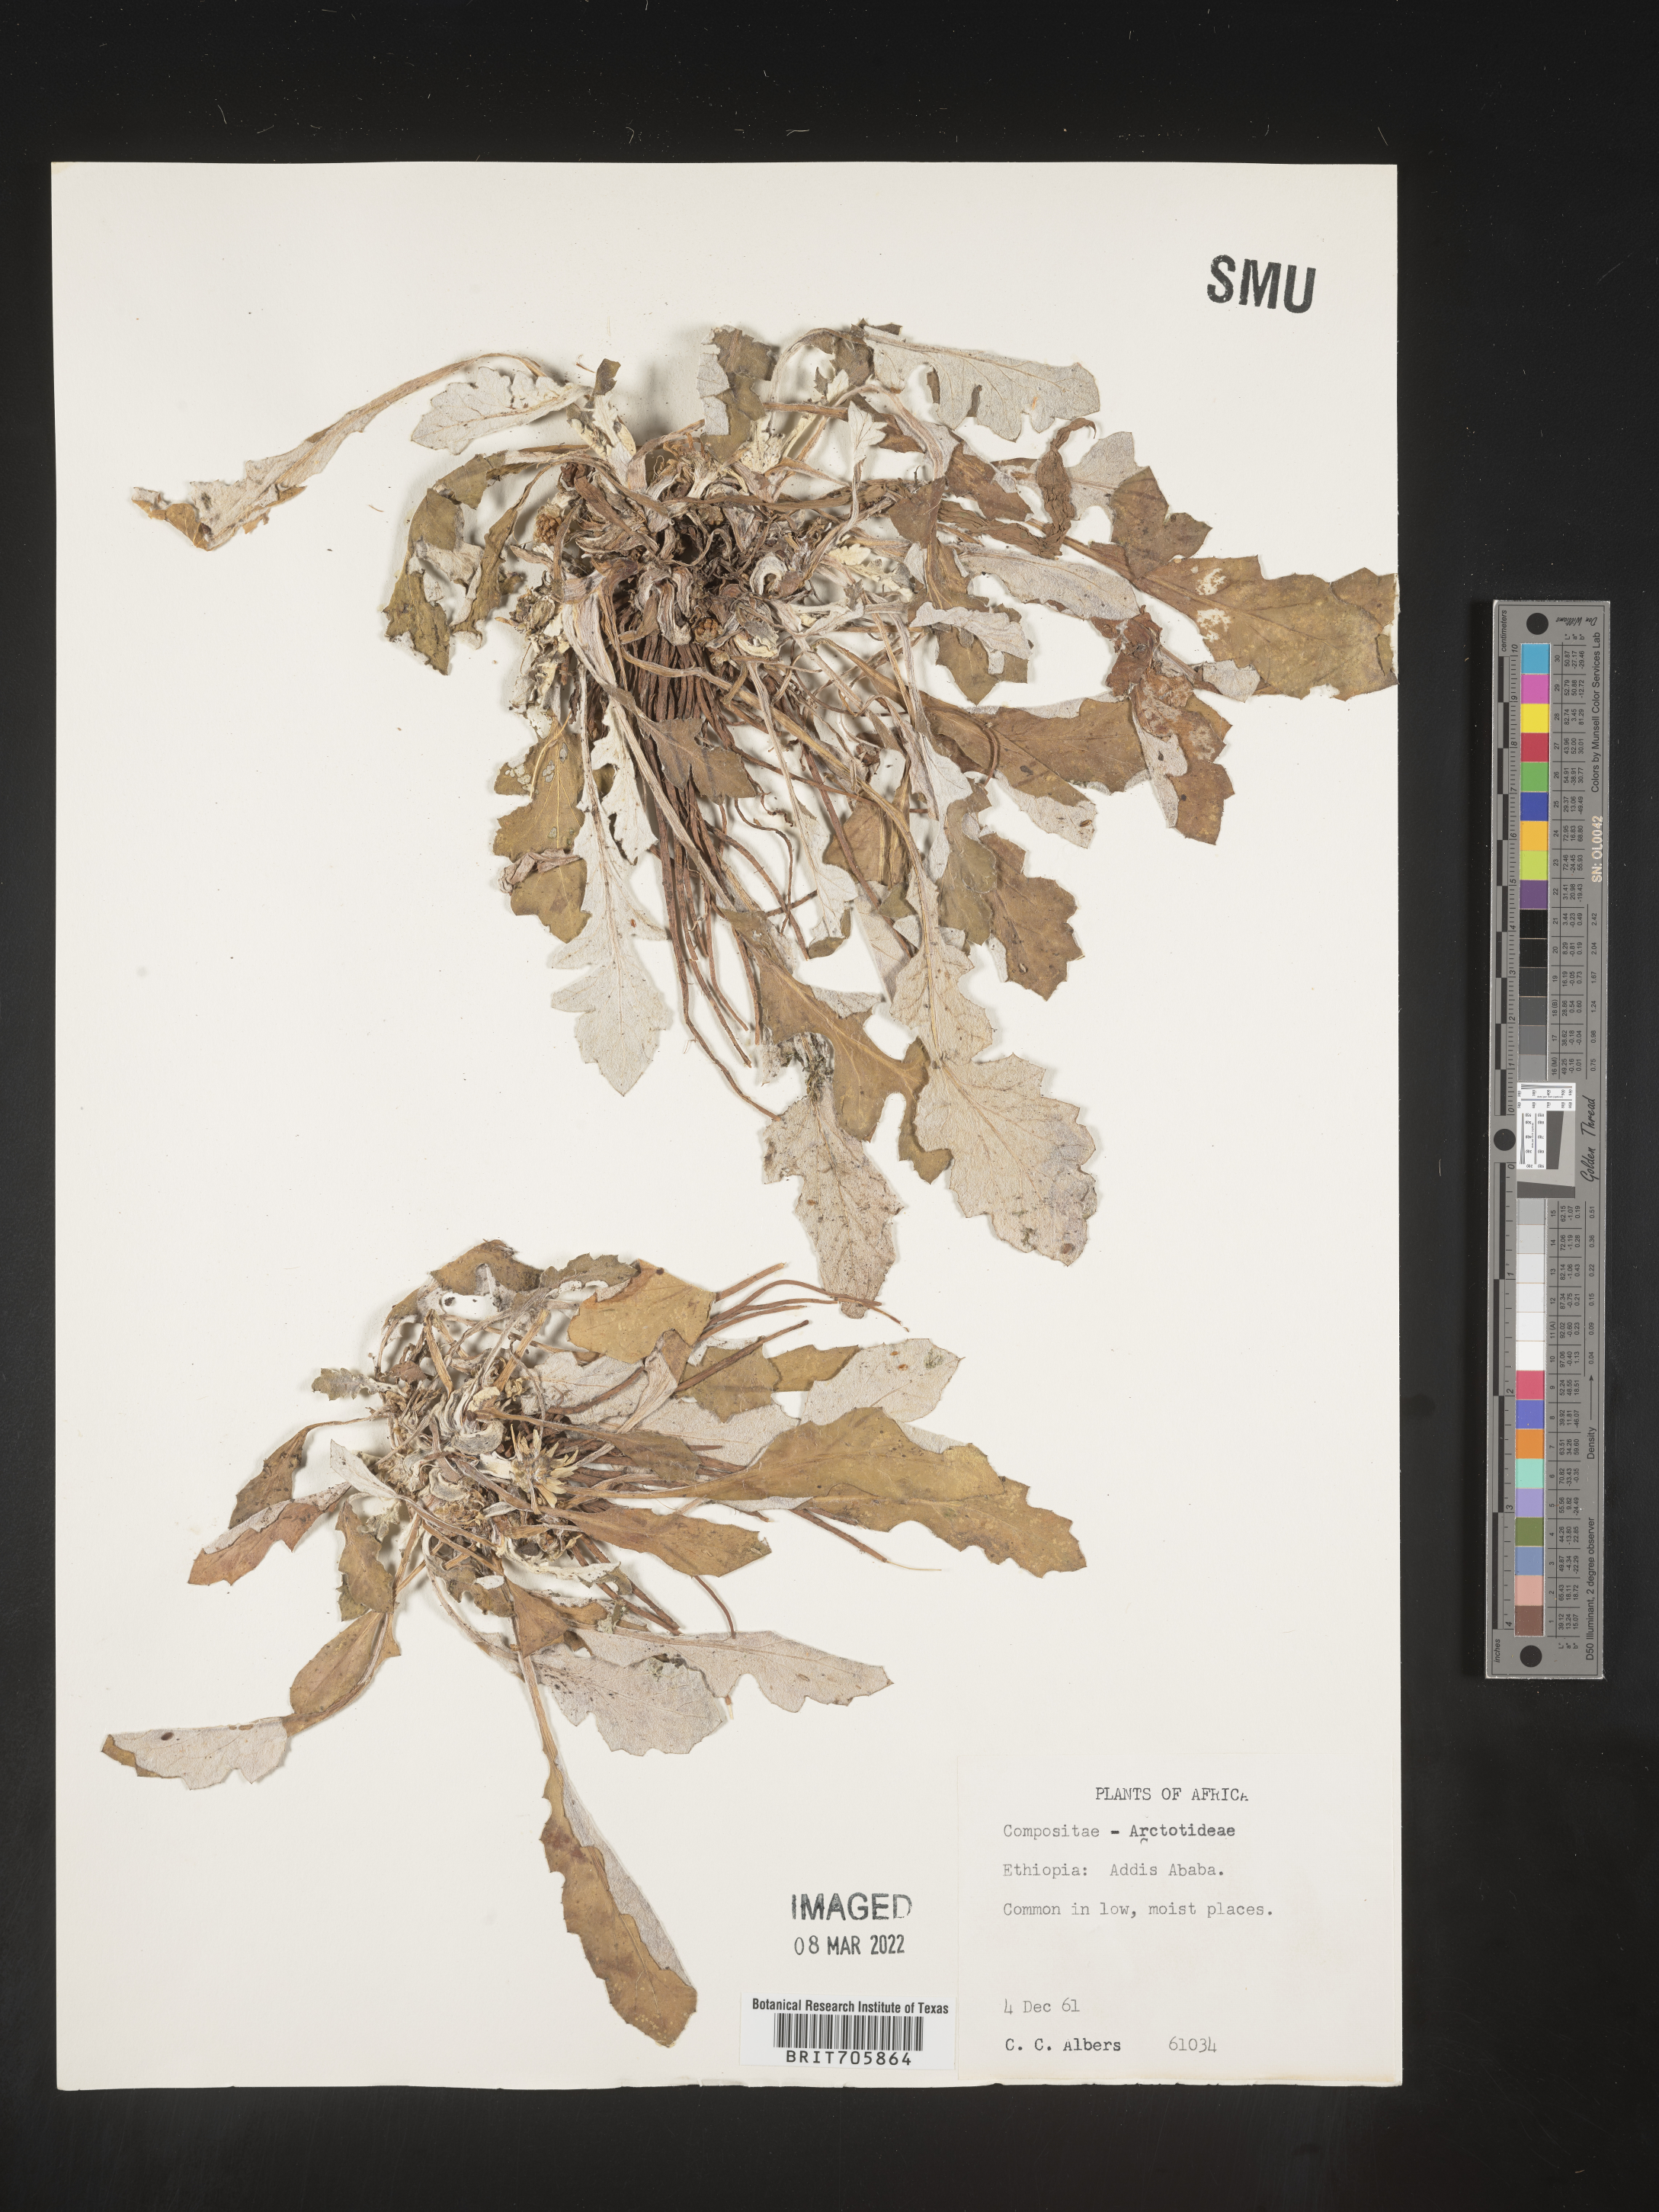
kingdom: Plantae
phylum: Tracheophyta
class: Magnoliopsida
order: Asterales
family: Asteraceae
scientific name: Asteraceae
